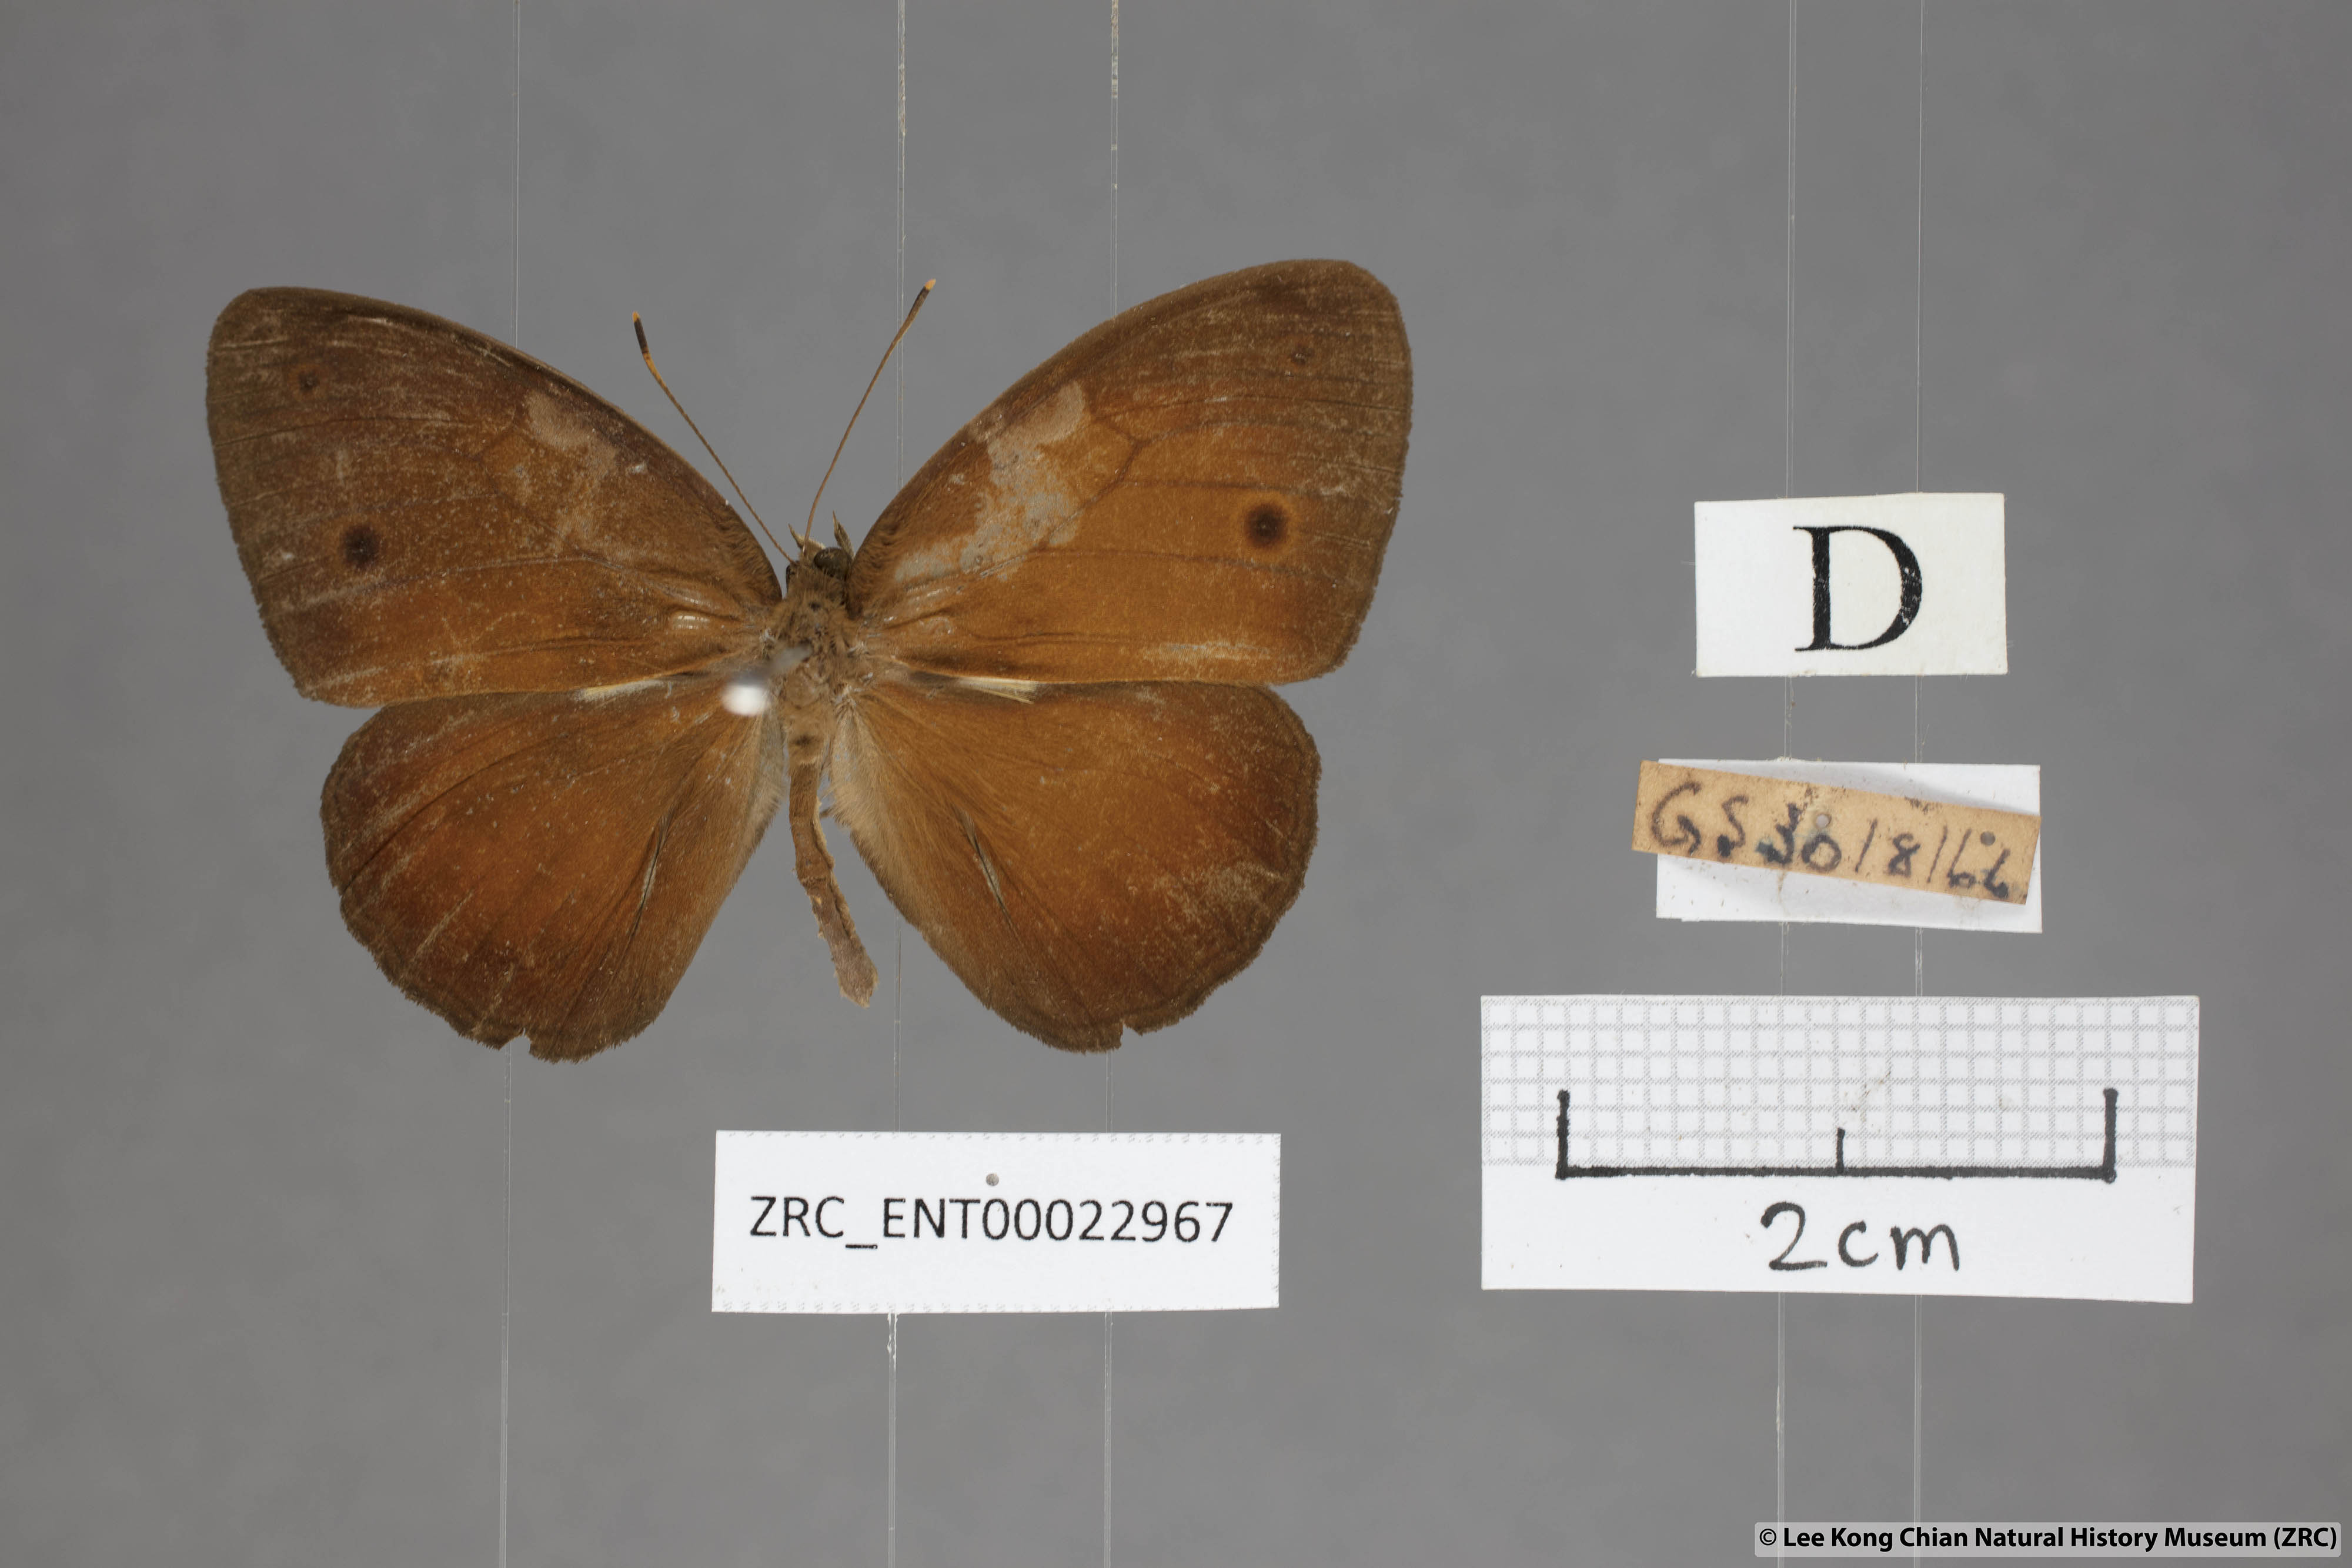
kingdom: Animalia
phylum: Arthropoda
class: Insecta
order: Lepidoptera
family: Nymphalidae
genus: Mycalesis
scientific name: Mycalesis oroatis
